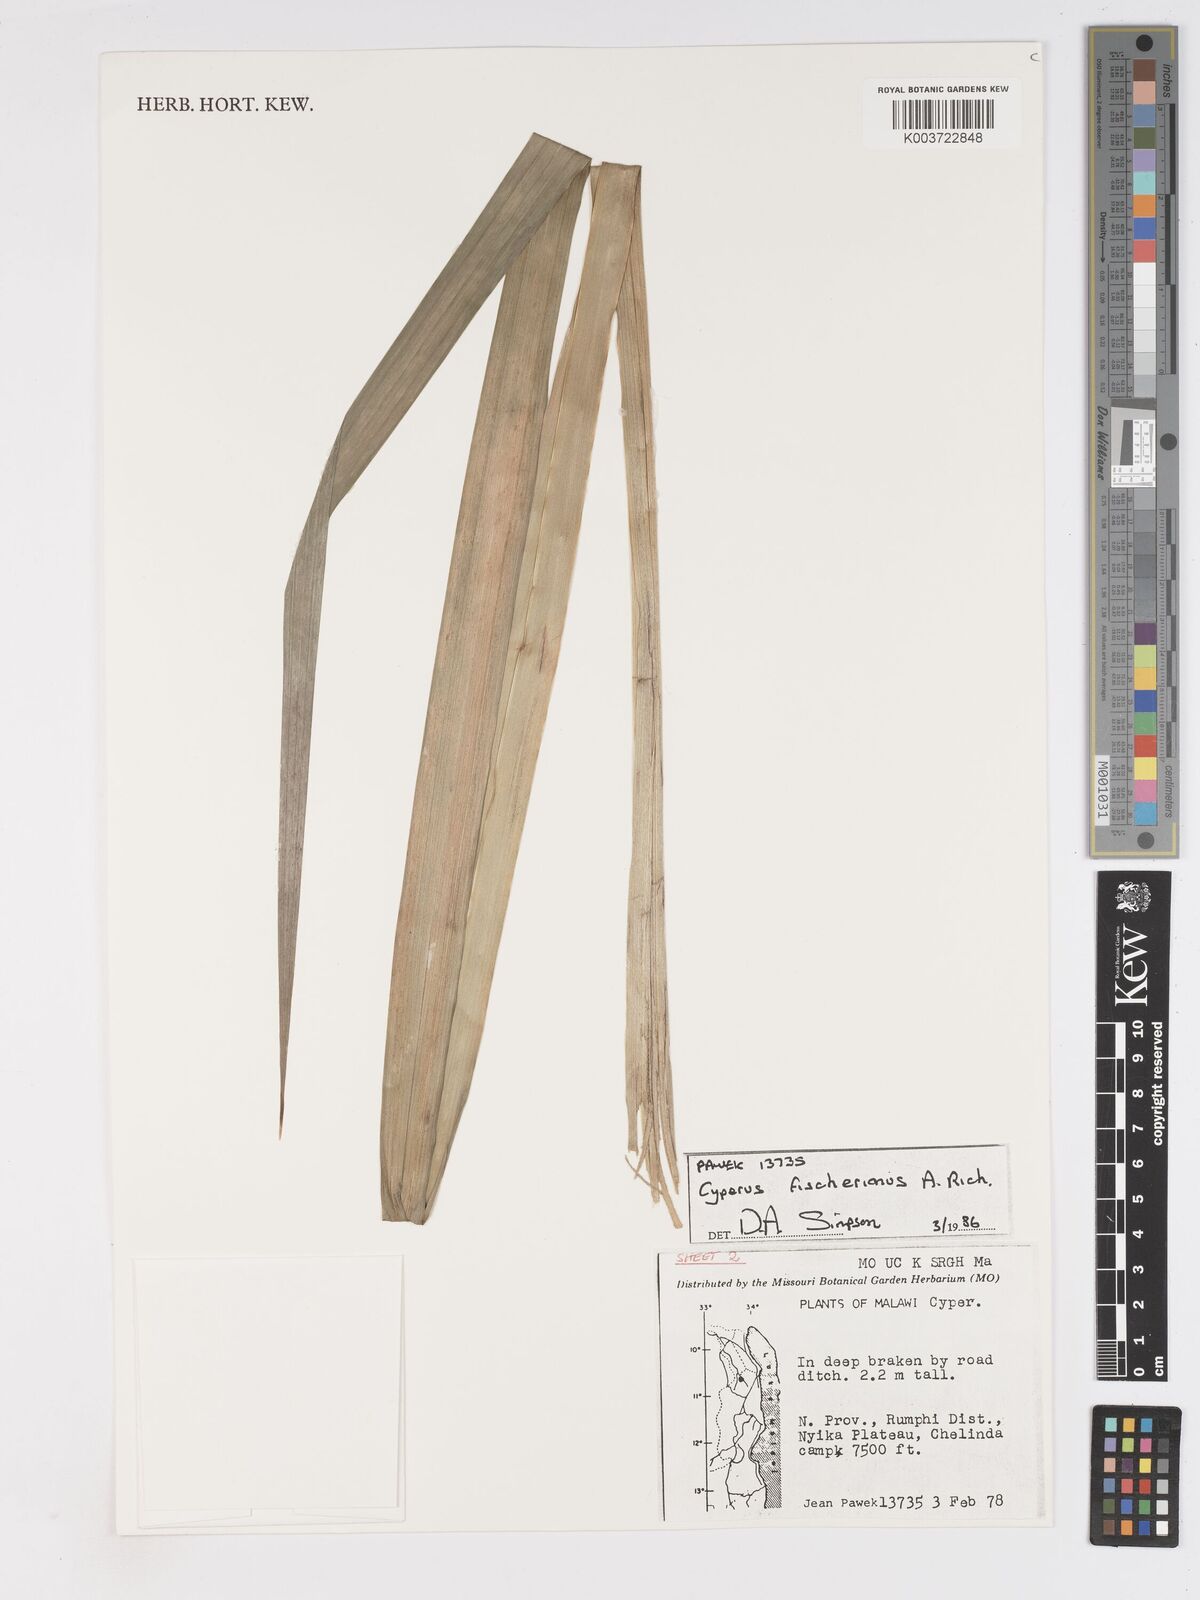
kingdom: Plantae
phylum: Tracheophyta
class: Liliopsida
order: Poales
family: Cyperaceae
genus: Cyperus
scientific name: Cyperus fischerianus
